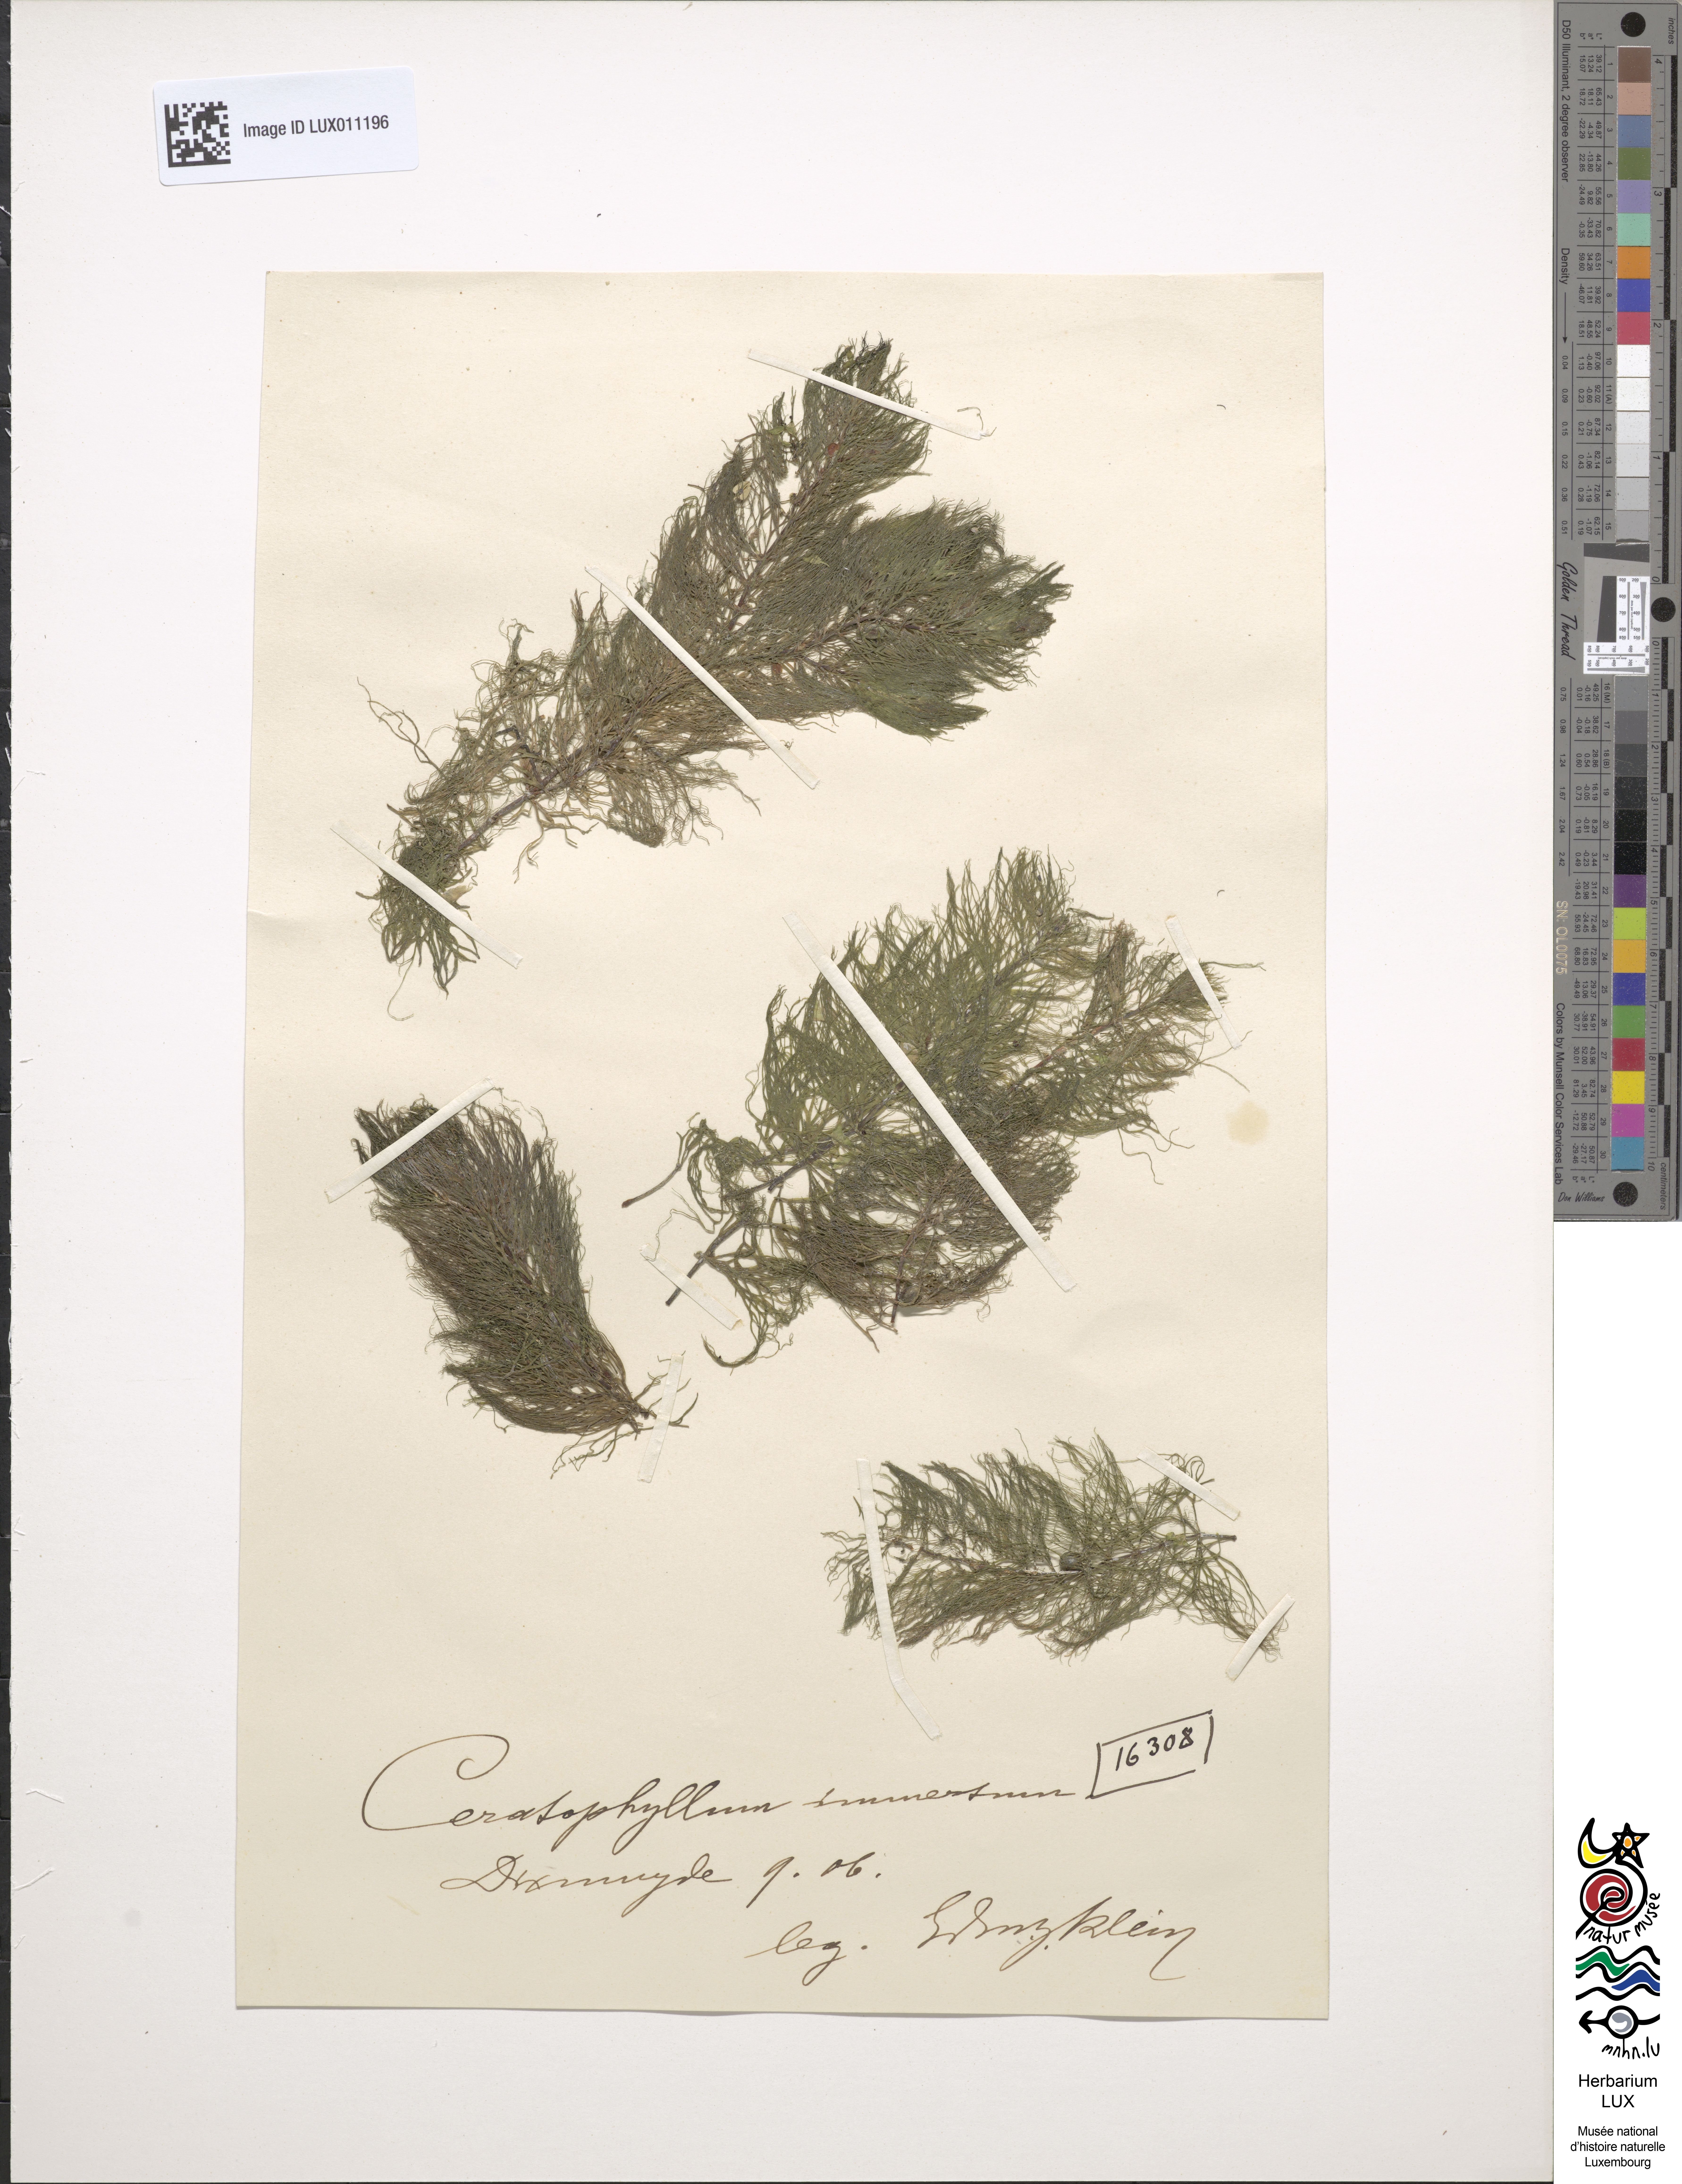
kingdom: Plantae
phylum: Tracheophyta
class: Magnoliopsida
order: Ceratophyllales
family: Ceratophyllaceae
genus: Ceratophyllum
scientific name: Ceratophyllum submersum
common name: Soft hornwort
